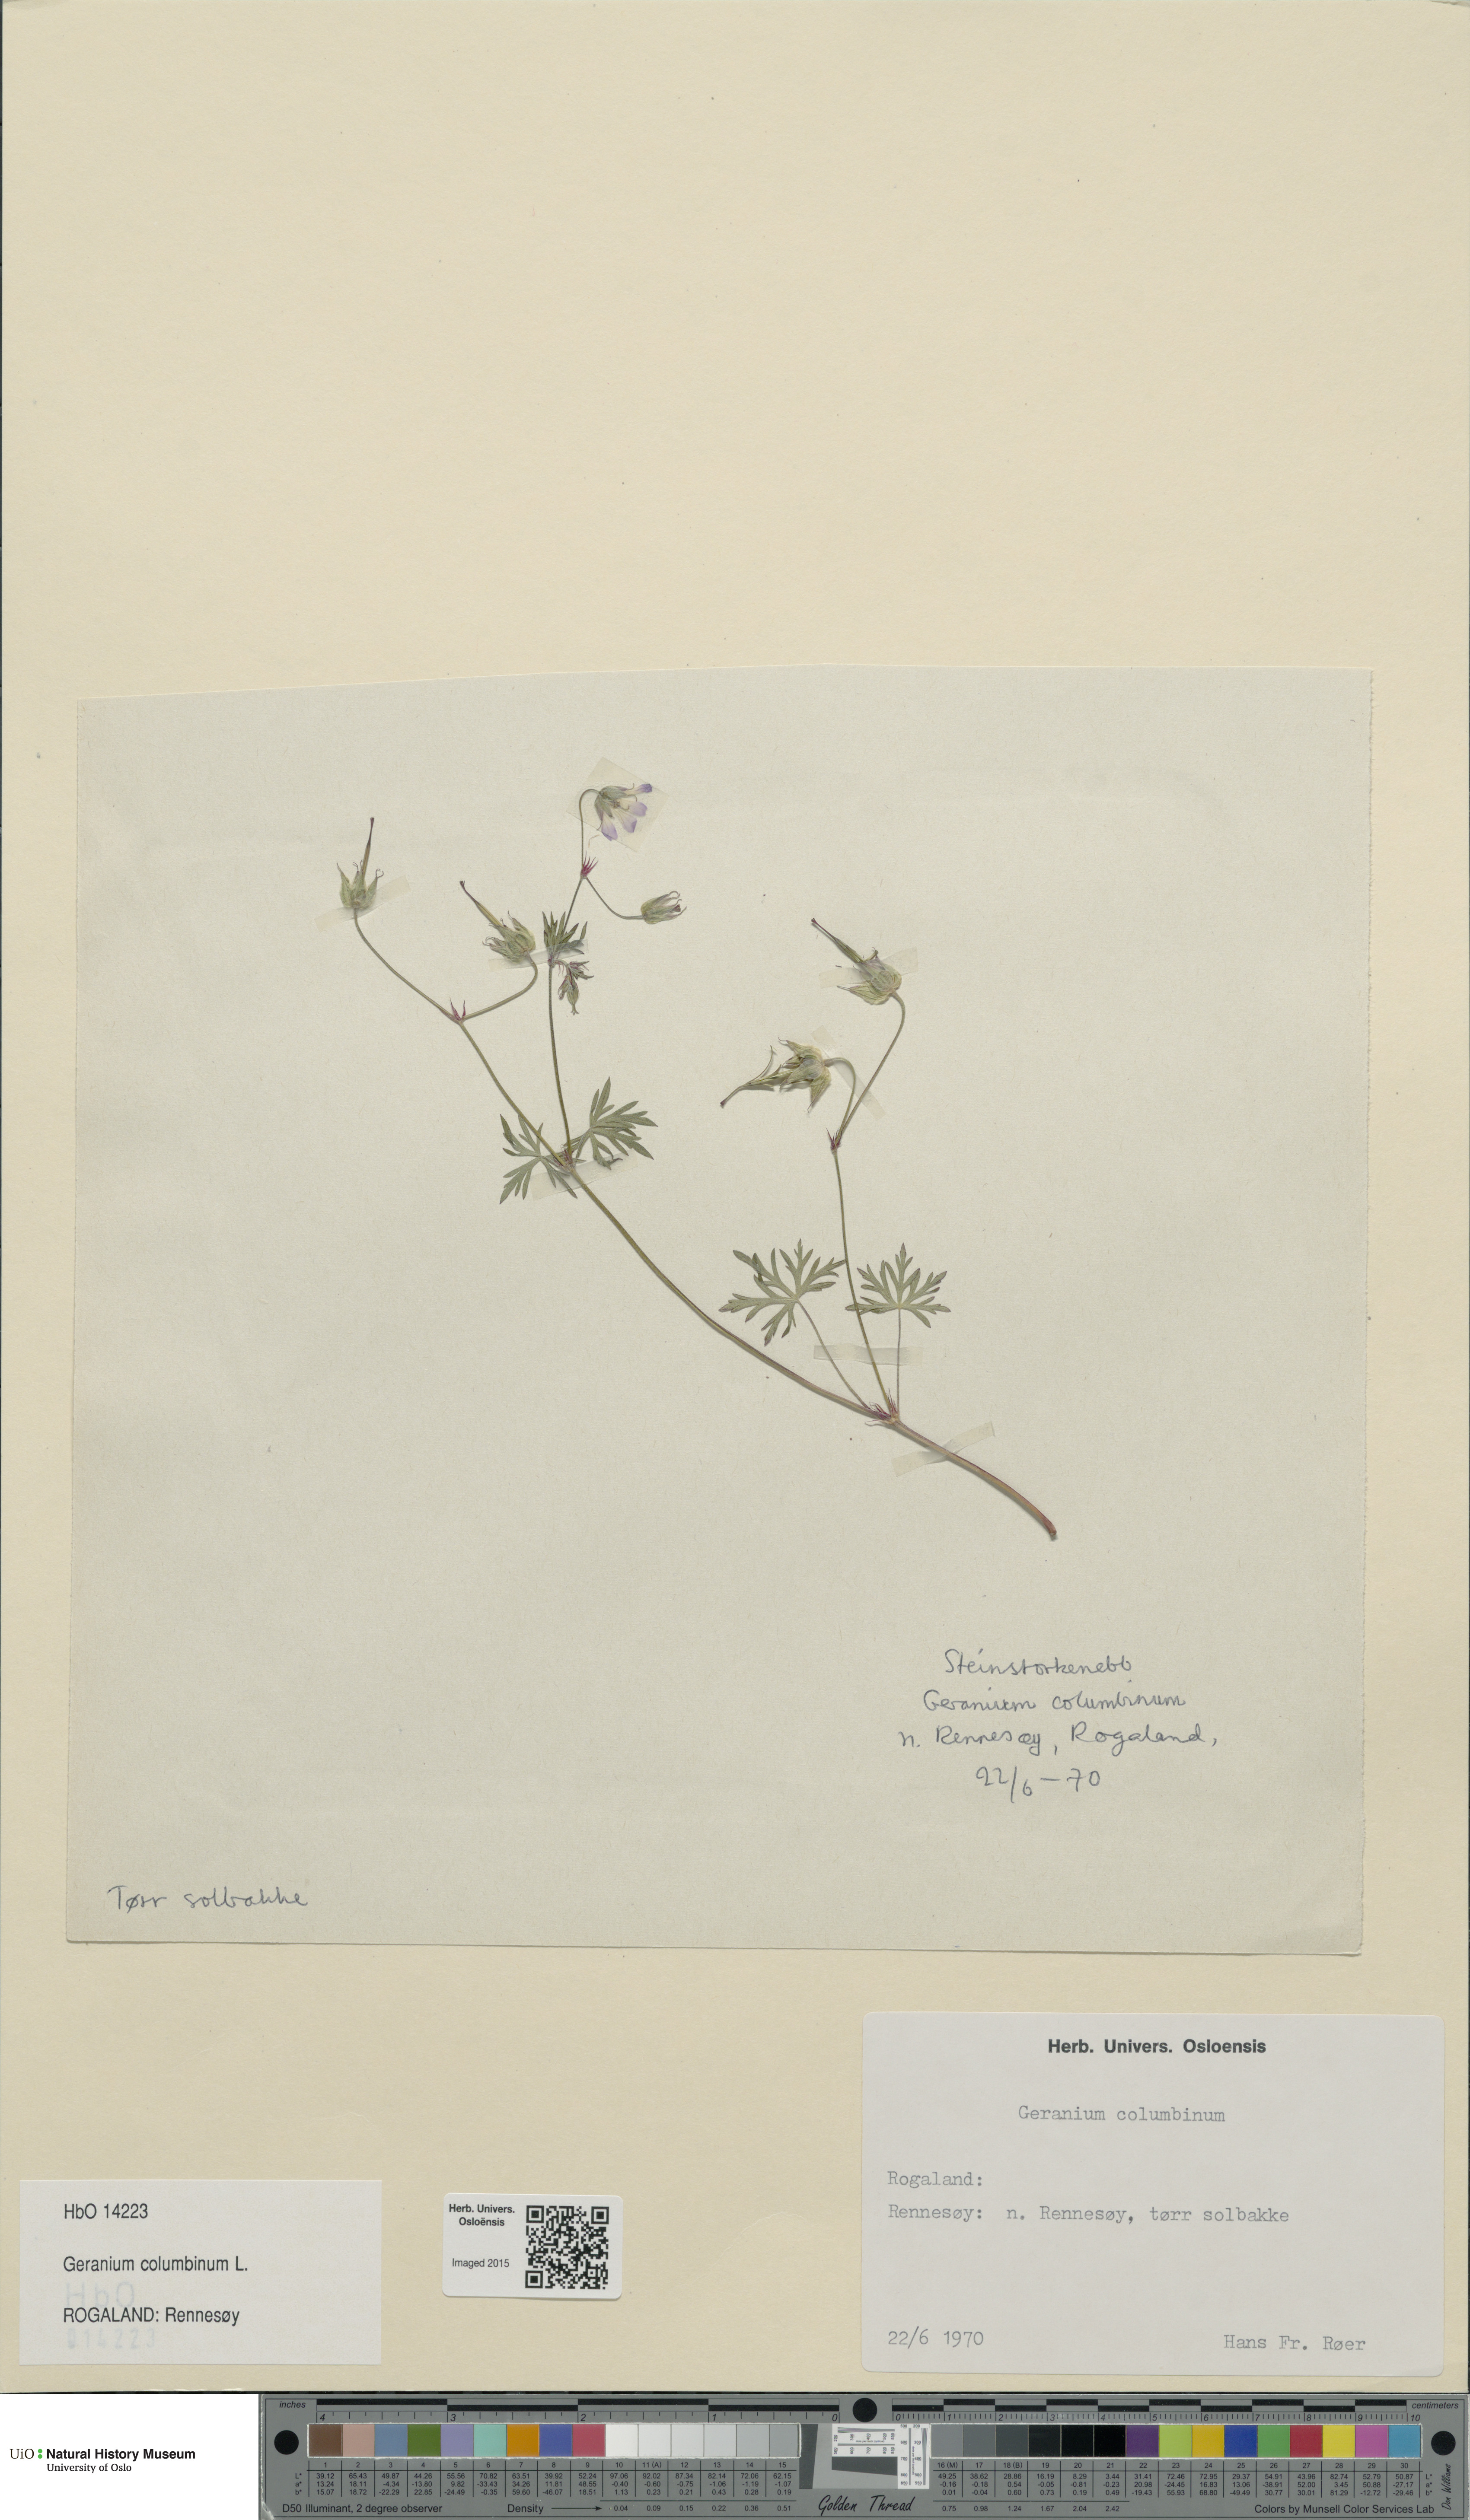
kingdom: Plantae
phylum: Tracheophyta
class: Magnoliopsida
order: Geraniales
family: Geraniaceae
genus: Geranium
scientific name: Geranium columbinum
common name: Long-stalked crane's-bill
